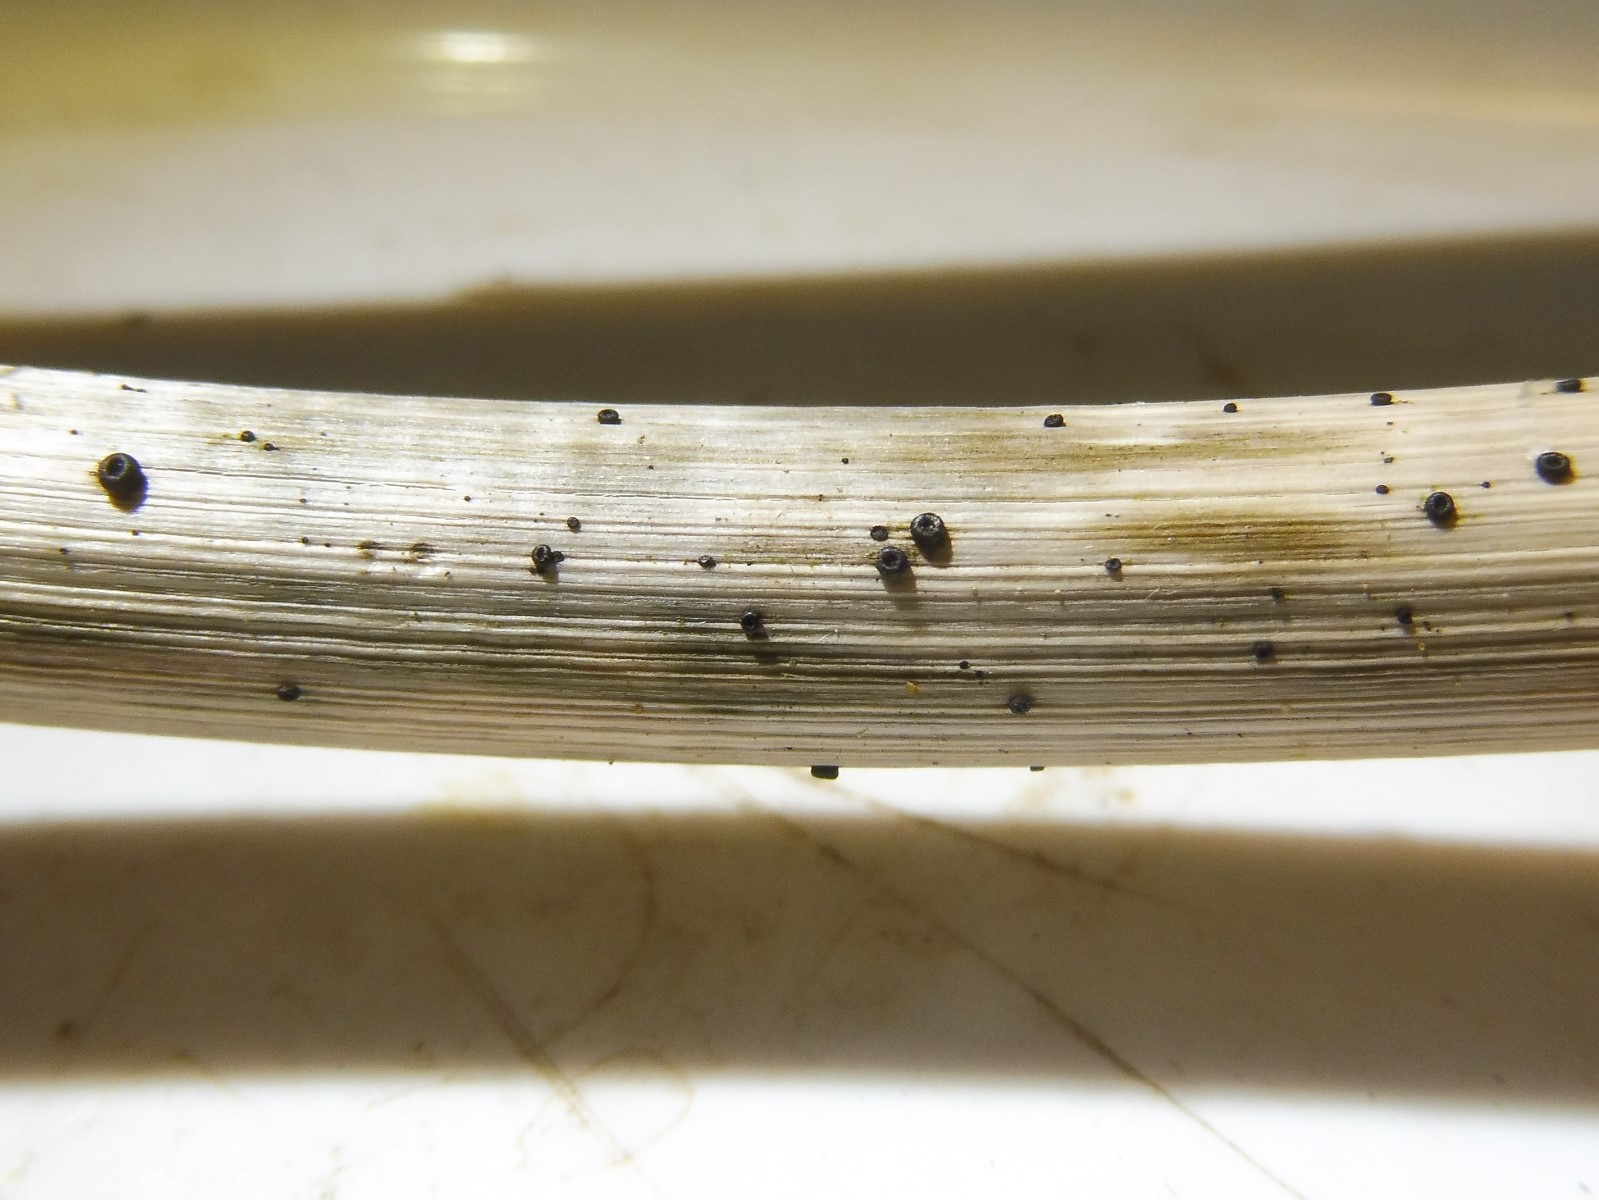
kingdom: Fungi
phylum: Ascomycota
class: Leotiomycetes
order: Helotiales
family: Heterosphaeriaceae
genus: Heterosphaeria
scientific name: Heterosphaeria
